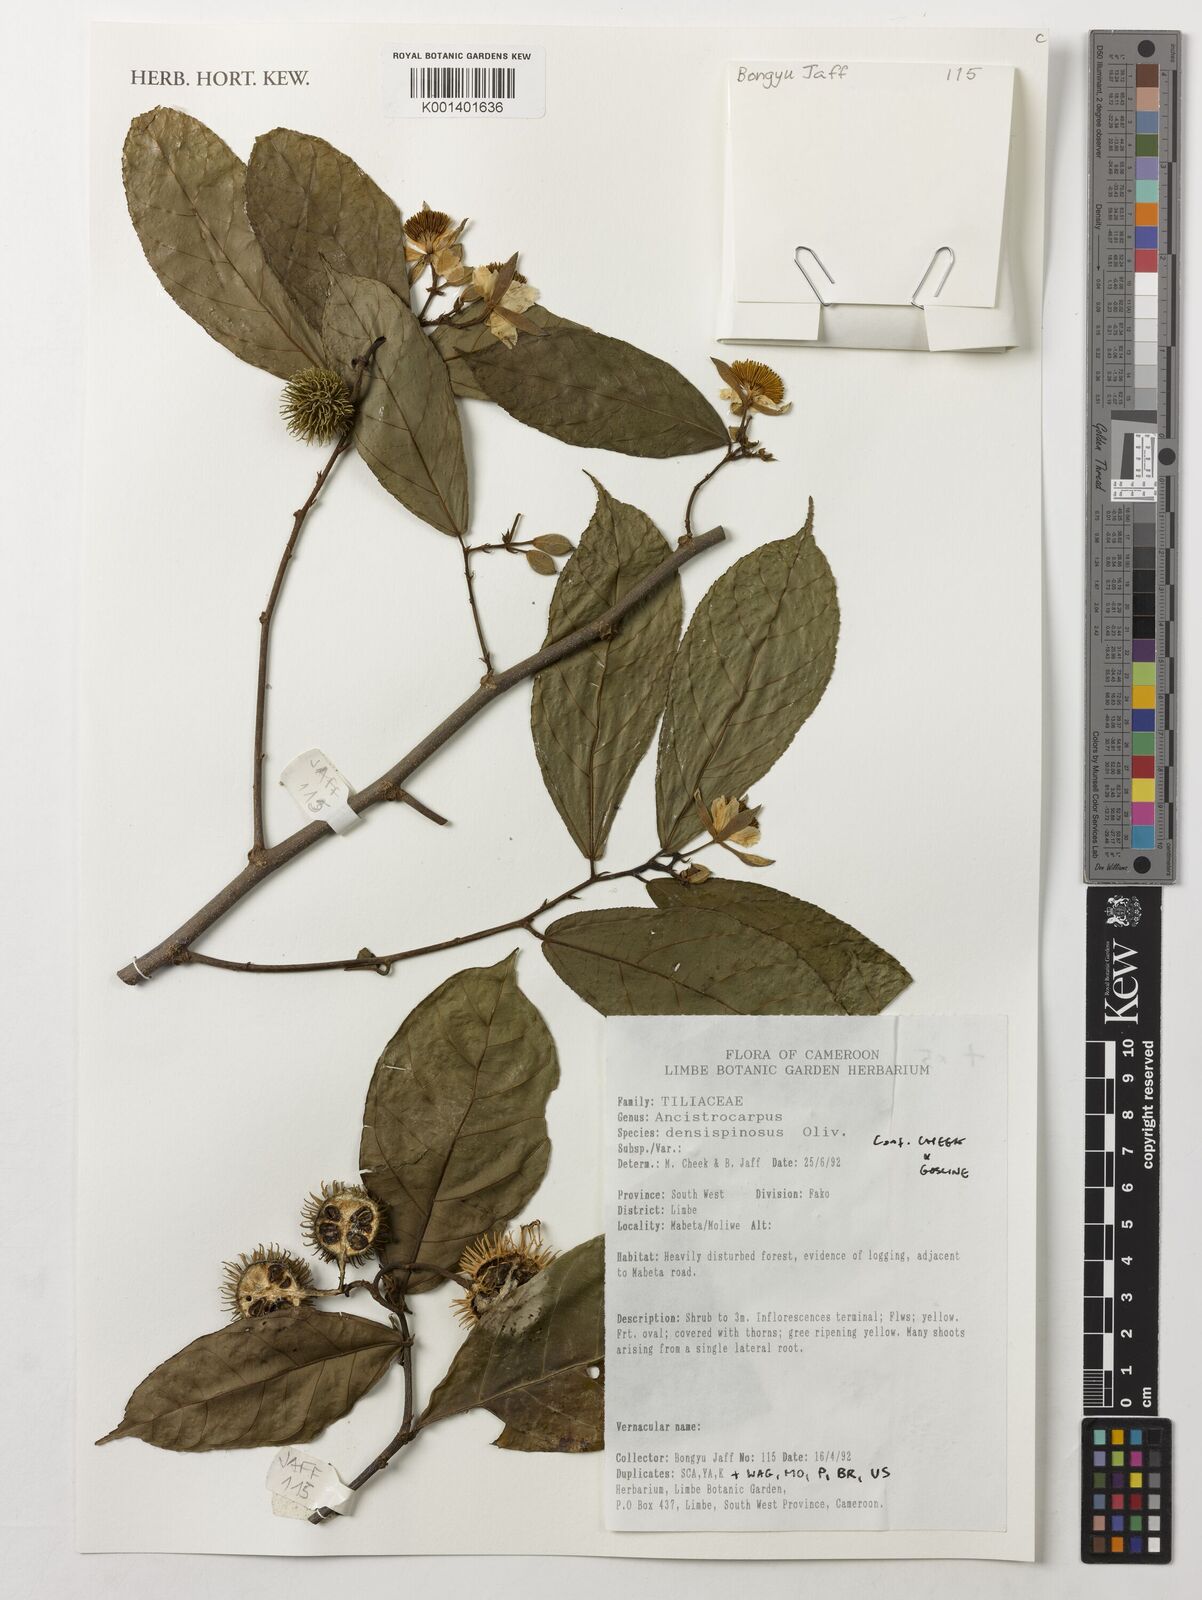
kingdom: Plantae
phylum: Tracheophyta
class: Magnoliopsida
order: Malvales
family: Malvaceae
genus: Ancistrocarpus
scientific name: Ancistrocarpus densispinosus
